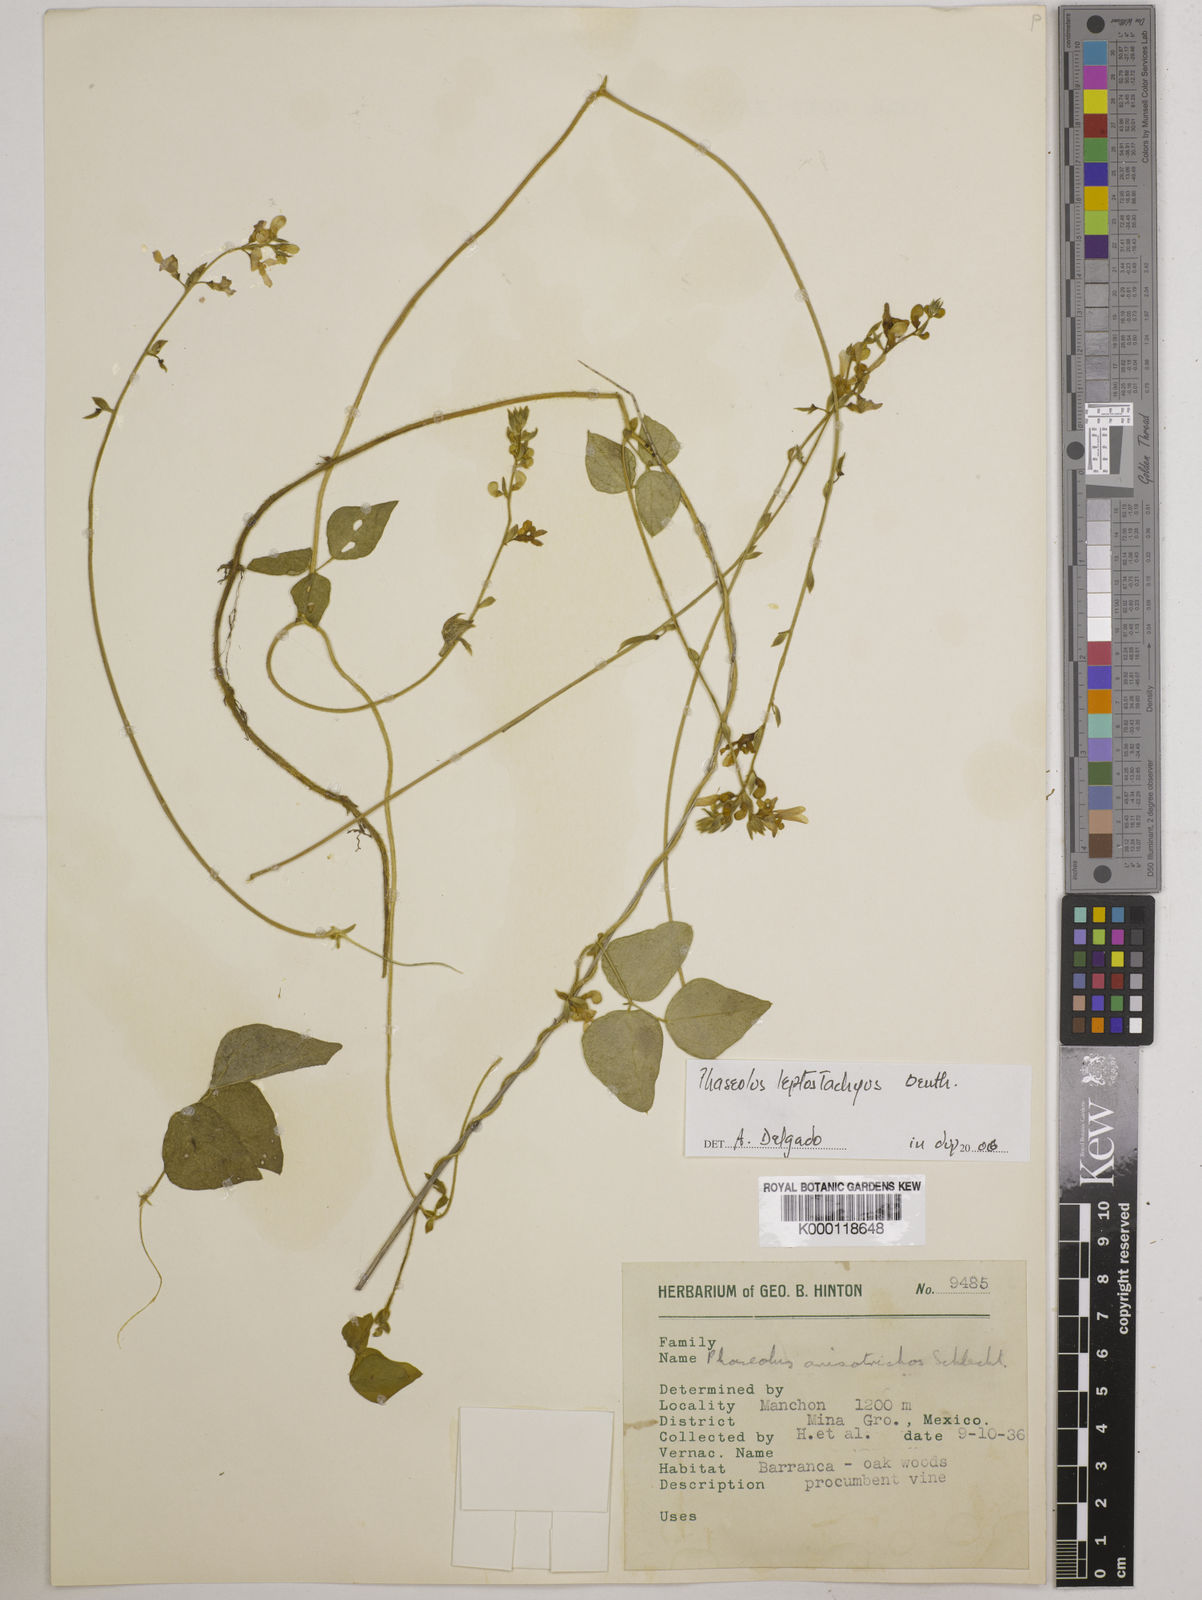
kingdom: Plantae
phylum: Tracheophyta
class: Magnoliopsida
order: Fabales
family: Fabaceae
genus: Phaseolus
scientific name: Phaseolus
